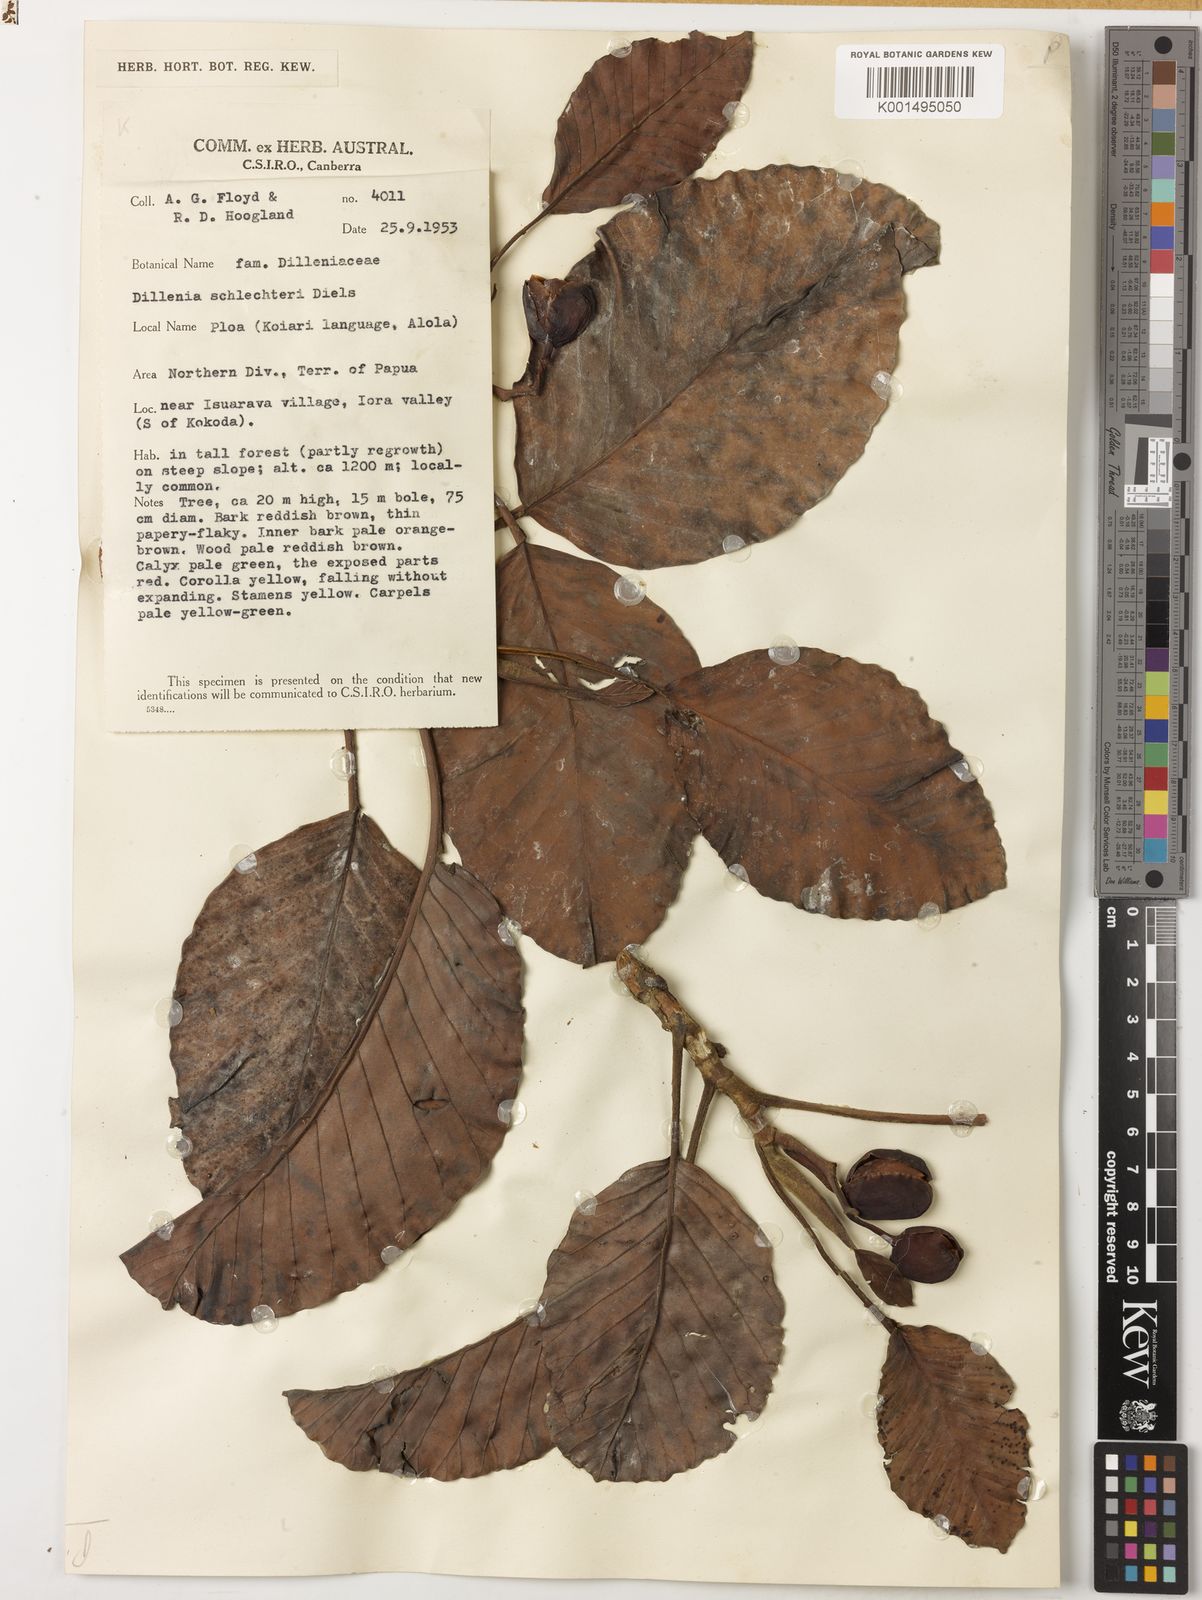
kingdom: Plantae
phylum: Tracheophyta
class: Magnoliopsida
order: Dilleniales
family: Dilleniaceae
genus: Dillenia
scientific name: Dillenia schlechteri
